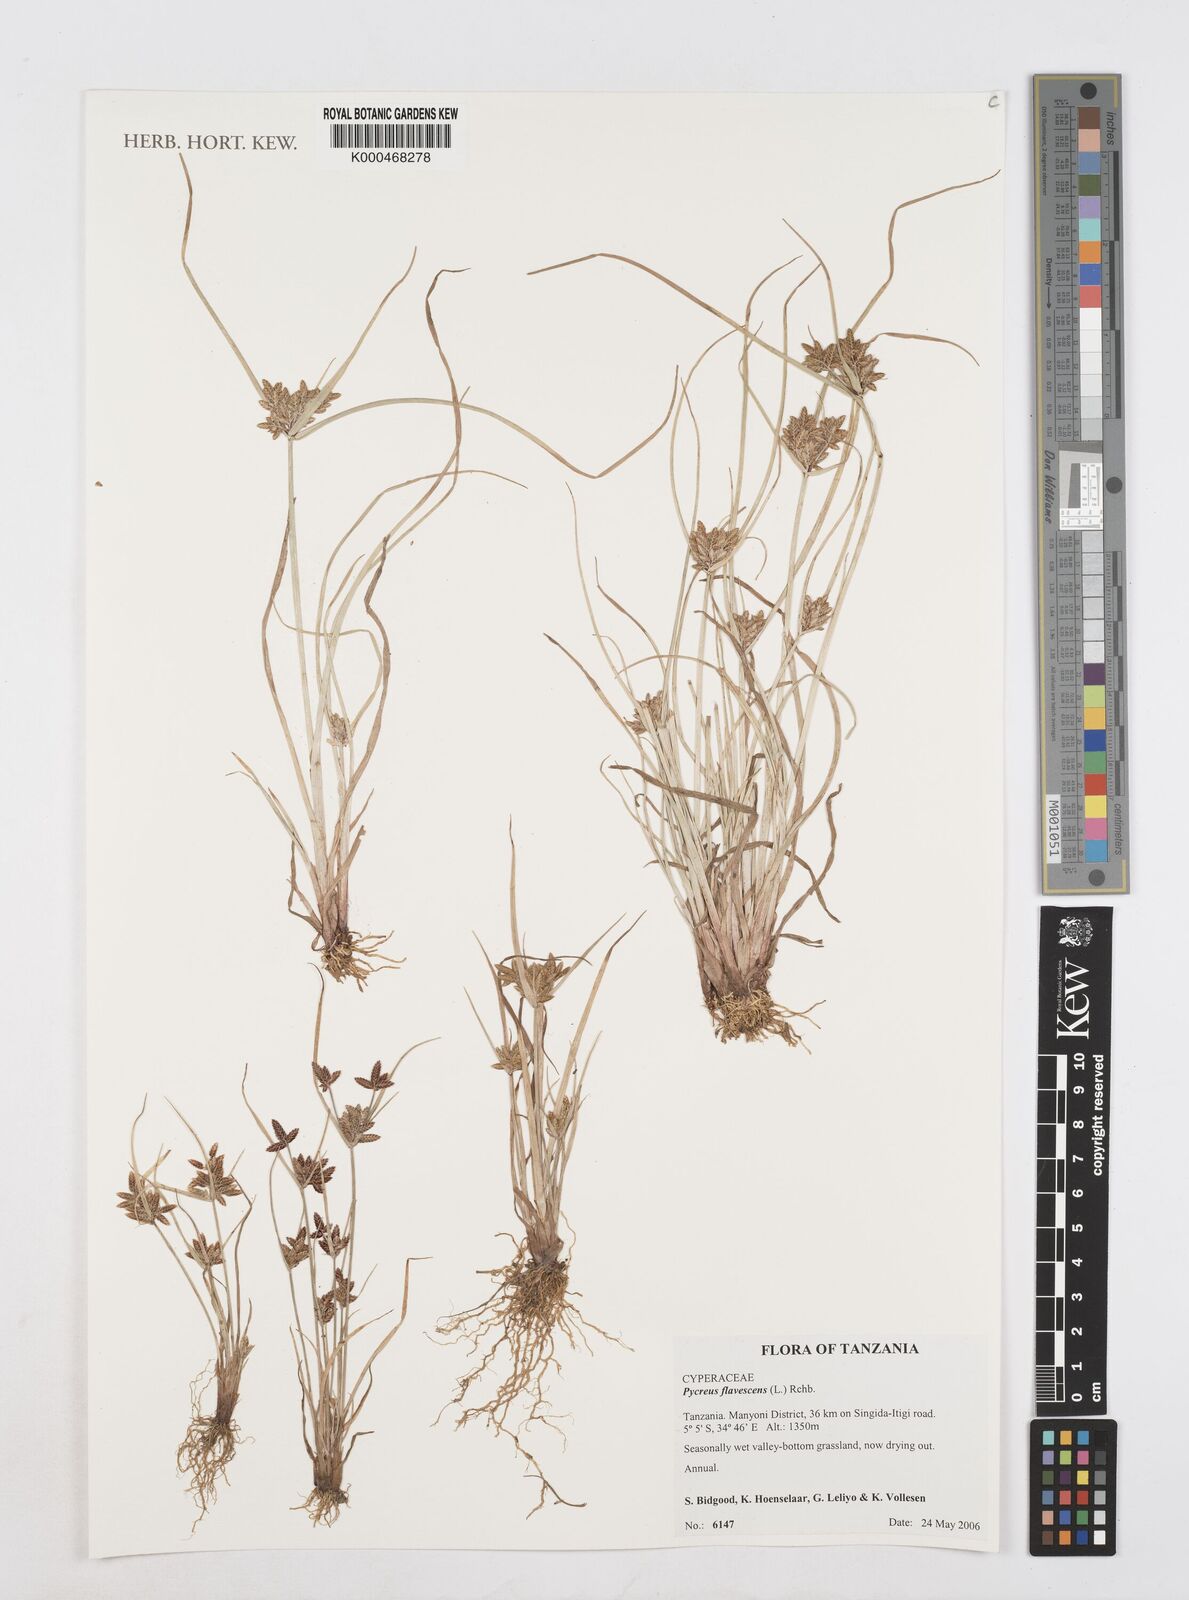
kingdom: Plantae
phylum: Tracheophyta
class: Liliopsida
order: Poales
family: Cyperaceae
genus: Cyperus
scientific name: Cyperus flavescens
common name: Yellow galingale
